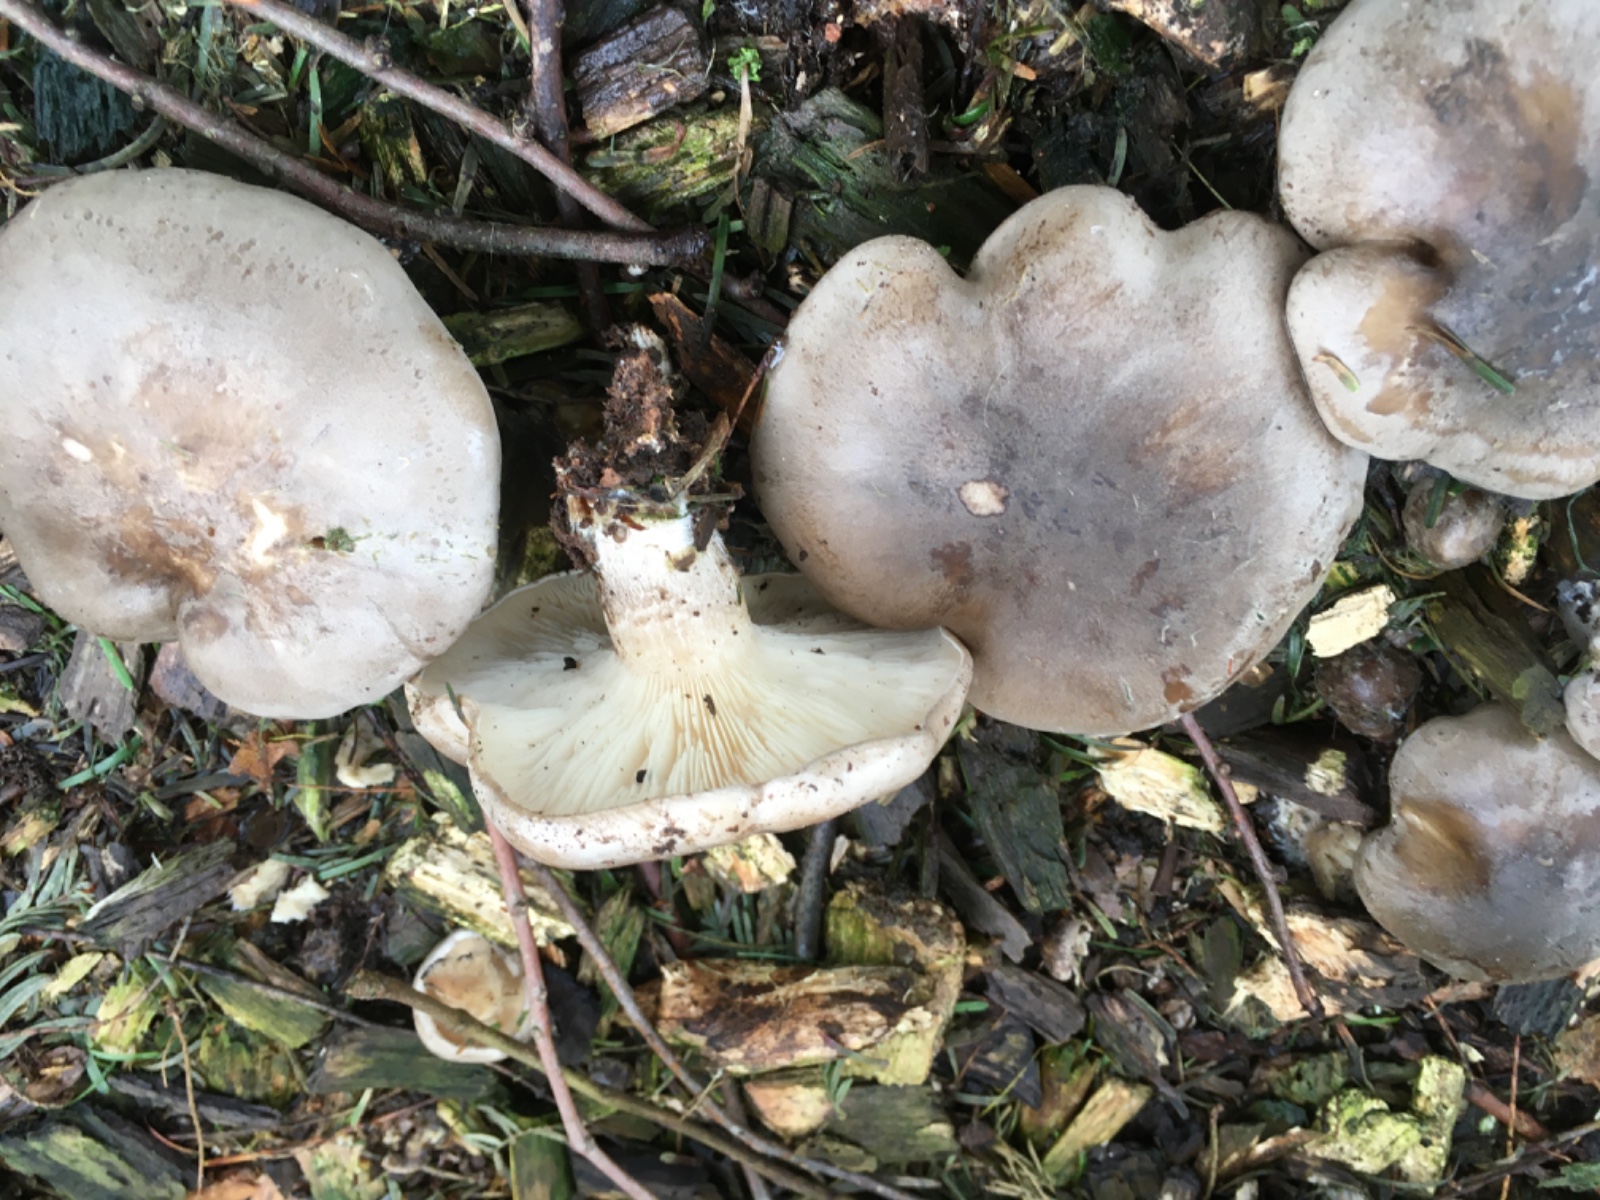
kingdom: Fungi
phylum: Basidiomycota
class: Agaricomycetes
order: Agaricales
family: Tricholomataceae
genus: Clitocybe
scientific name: Clitocybe nebularis
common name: tåge-tragthat
